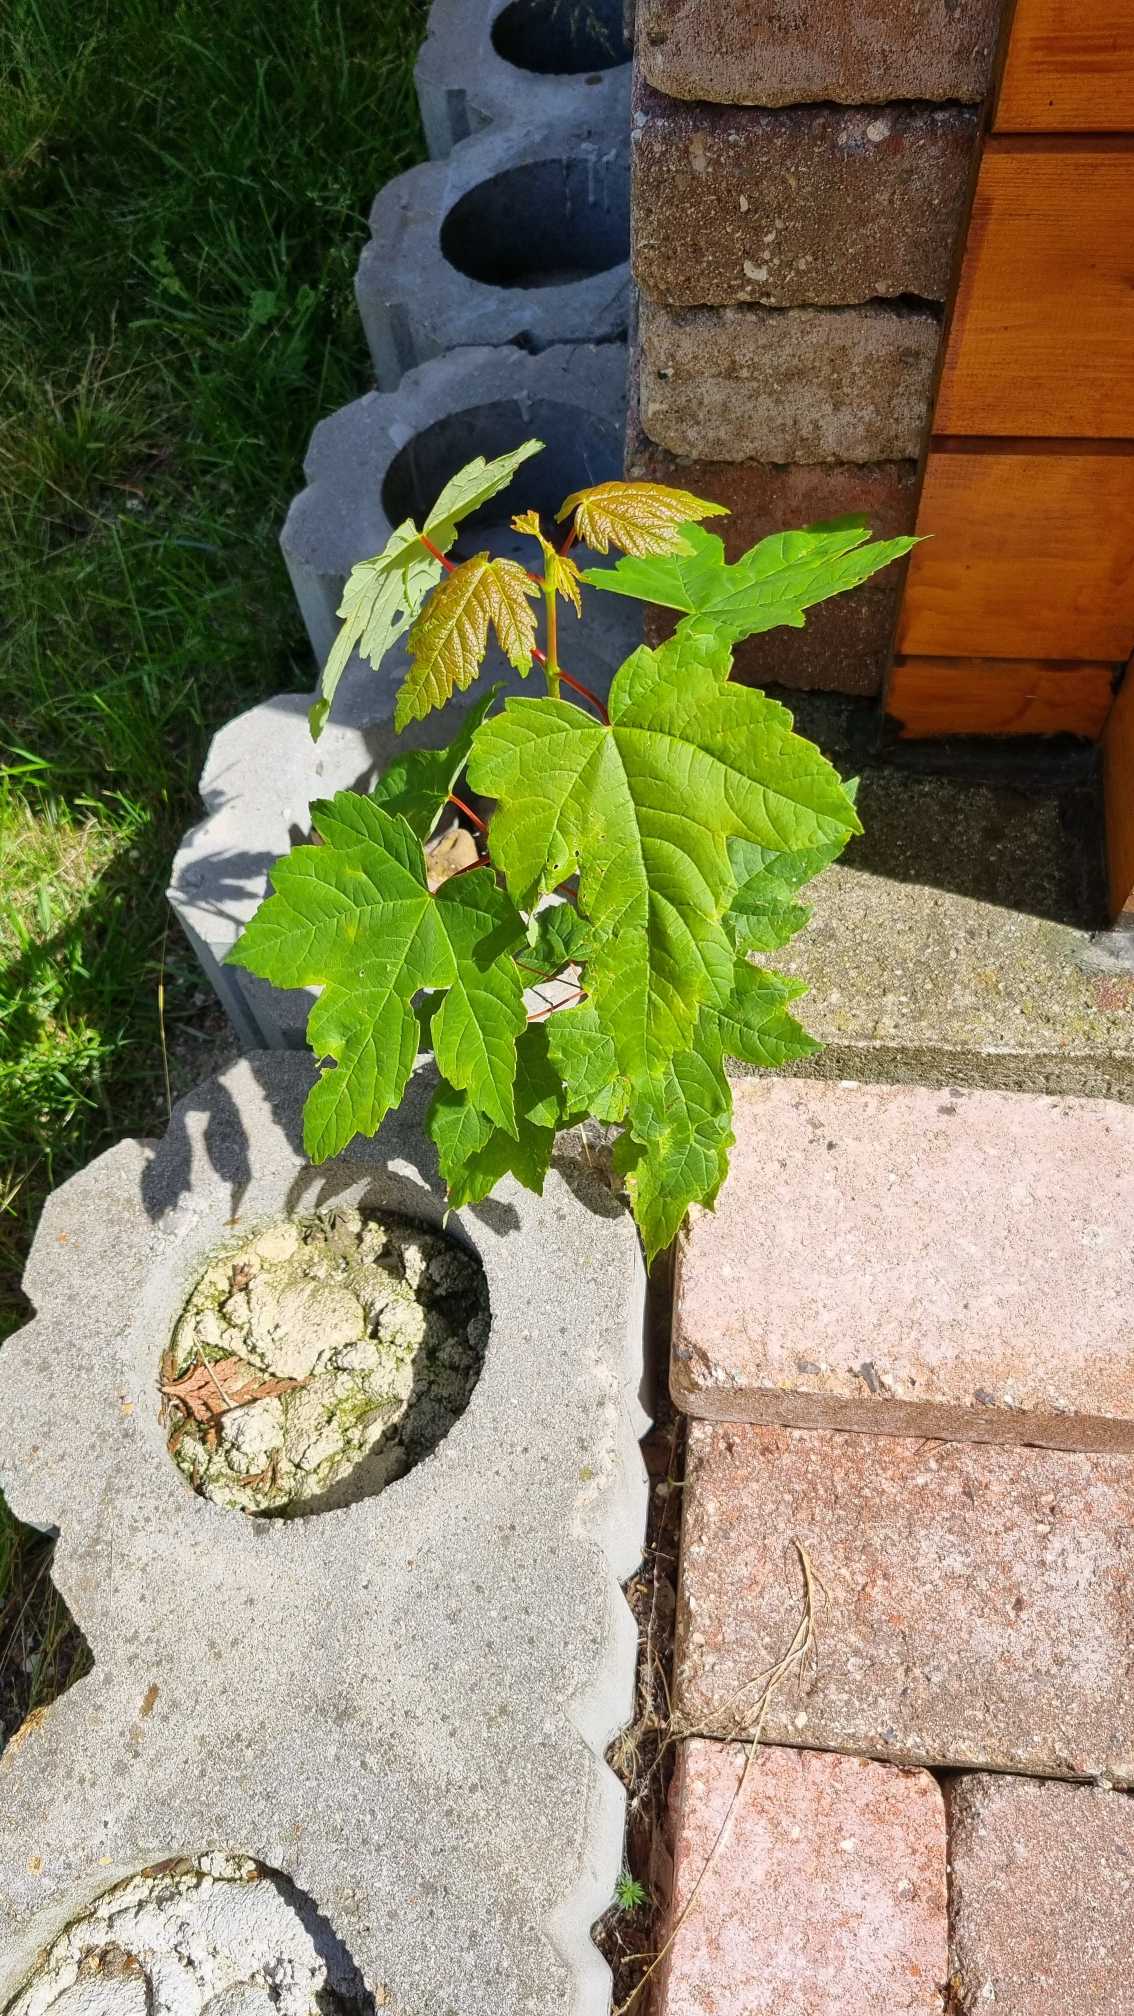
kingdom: Plantae
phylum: Tracheophyta
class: Magnoliopsida
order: Sapindales
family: Sapindaceae
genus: Acer
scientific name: Acer pseudoplatanus
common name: Ahorn
